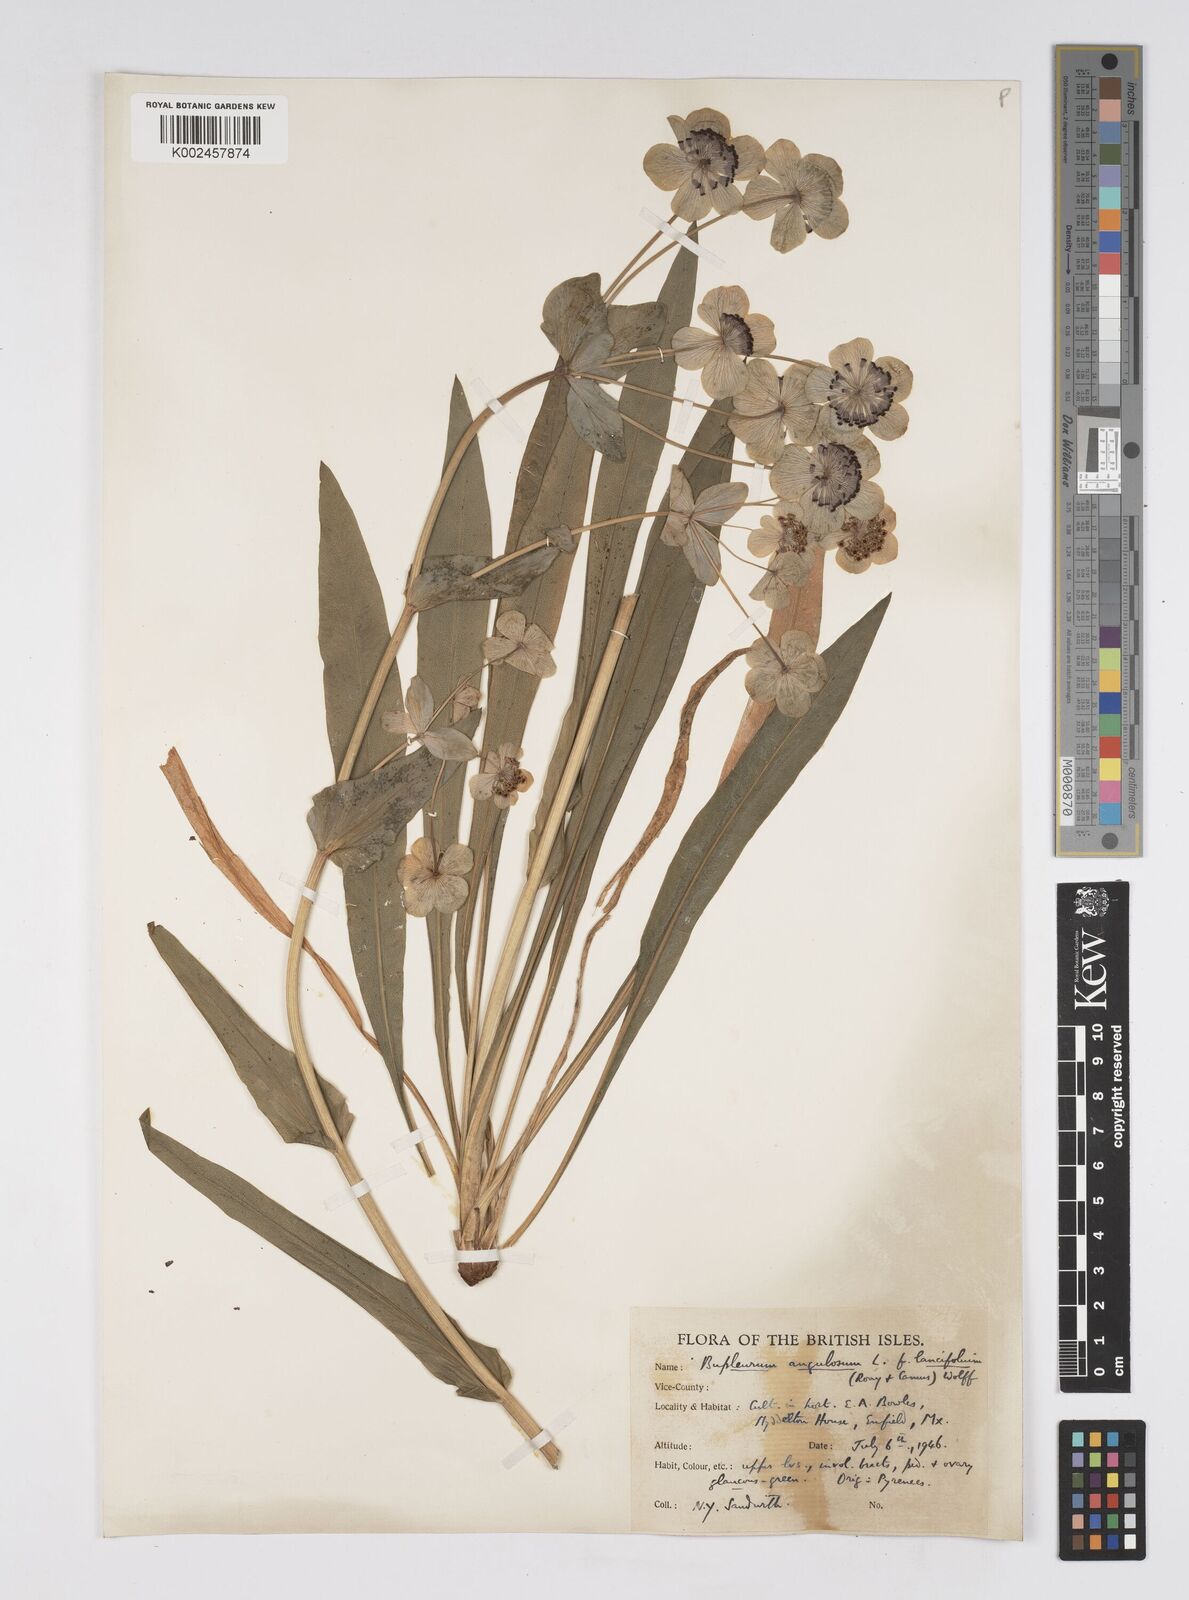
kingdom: Plantae
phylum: Tracheophyta
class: Magnoliopsida
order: Apiales
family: Apiaceae
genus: Bupleurum
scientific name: Bupleurum angulosum
